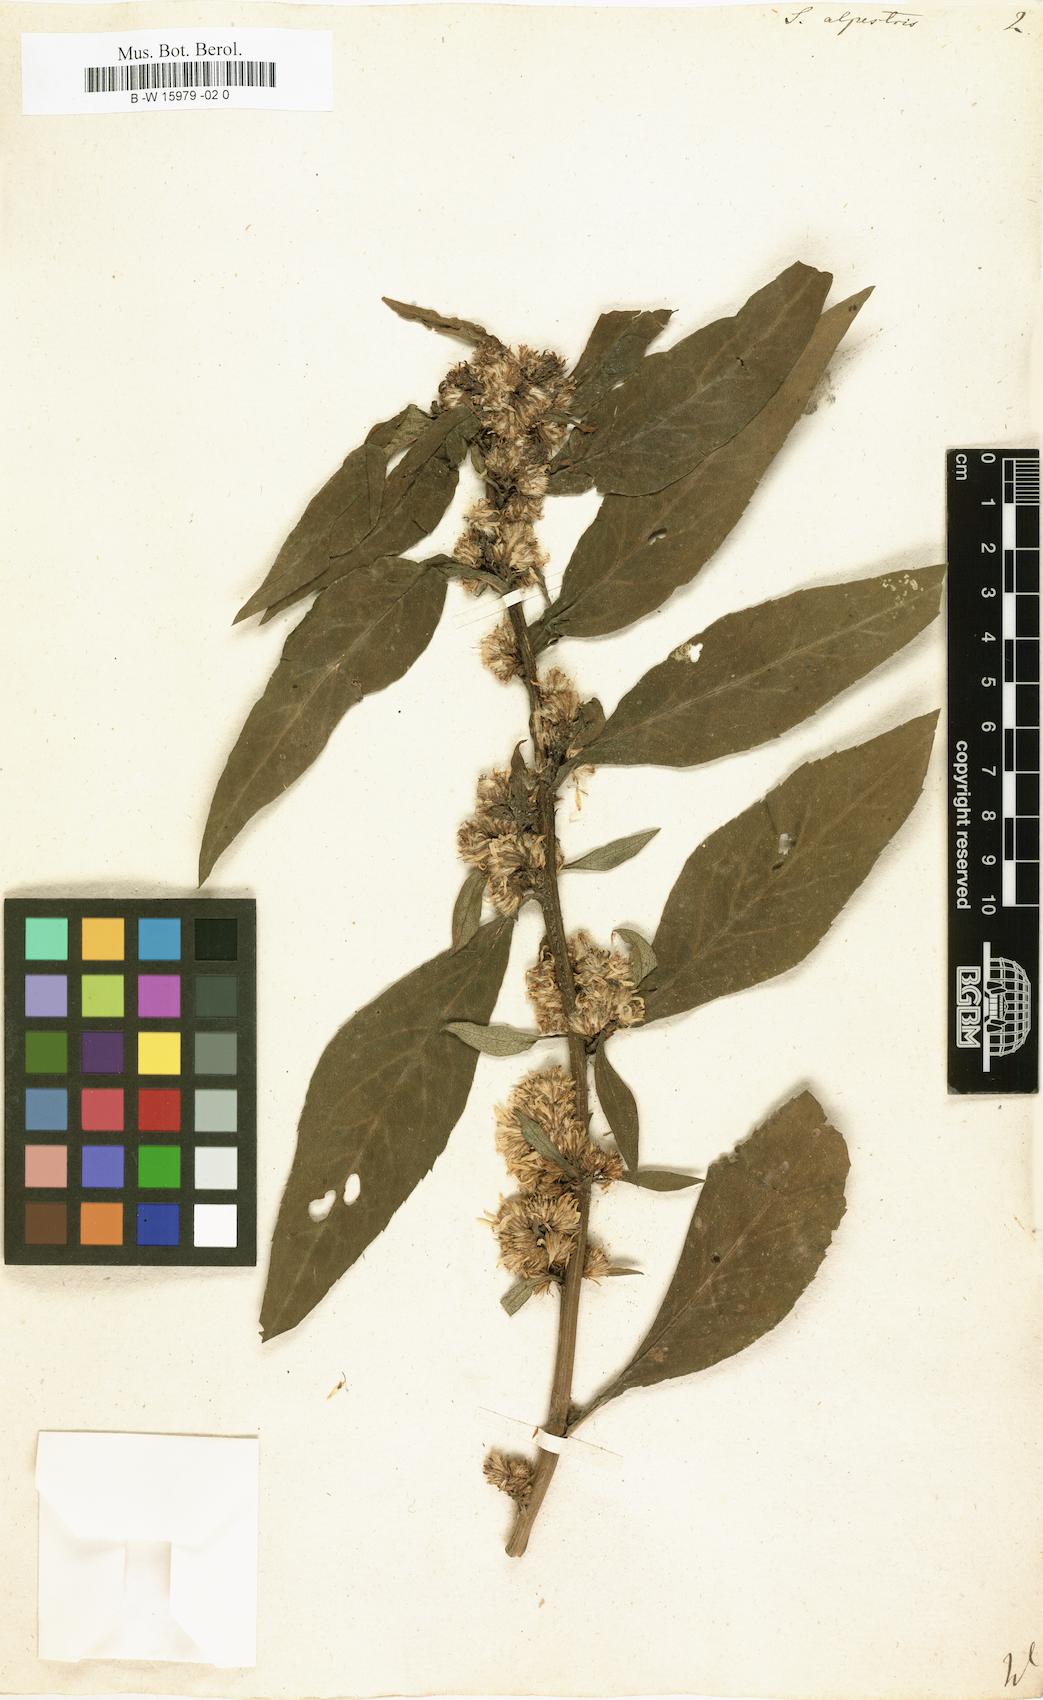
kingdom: Plantae
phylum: Tracheophyta
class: Magnoliopsida
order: Asterales
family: Asteraceae
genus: Solidago
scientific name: Solidago
